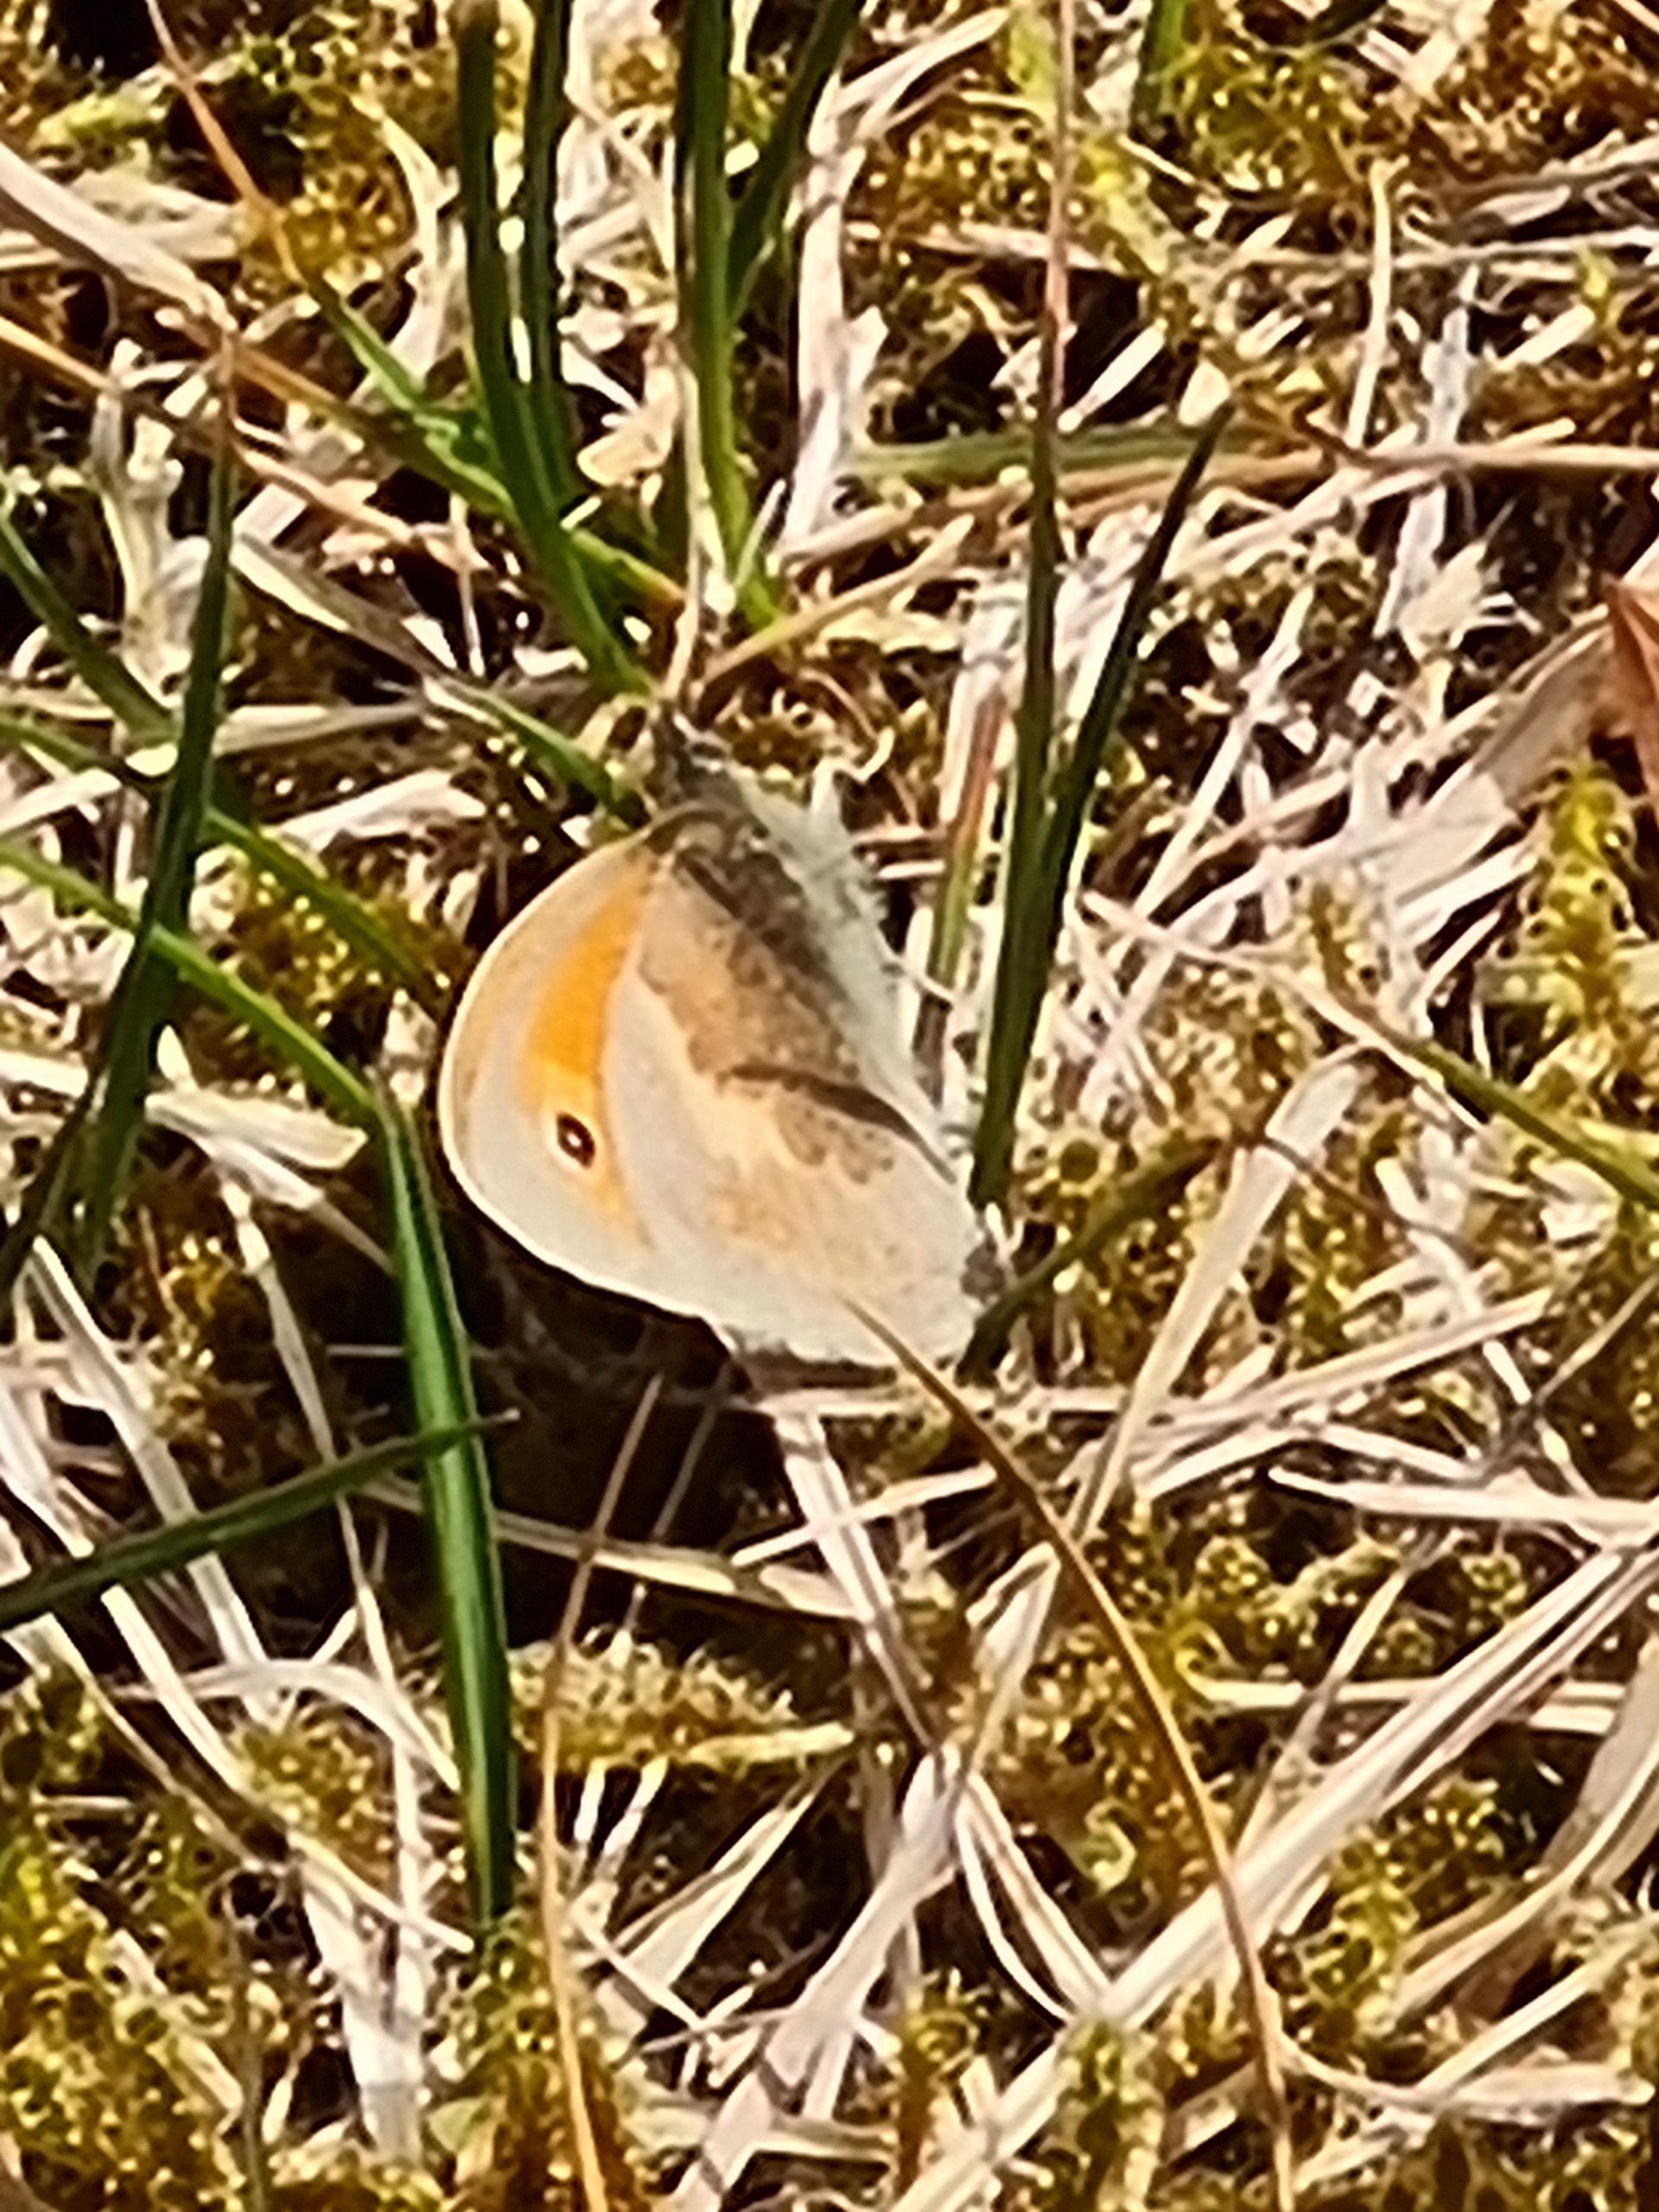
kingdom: Animalia
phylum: Arthropoda
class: Insecta
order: Lepidoptera
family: Nymphalidae
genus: Coenonympha
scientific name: Coenonympha pamphilus
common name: Okkergul randøje
